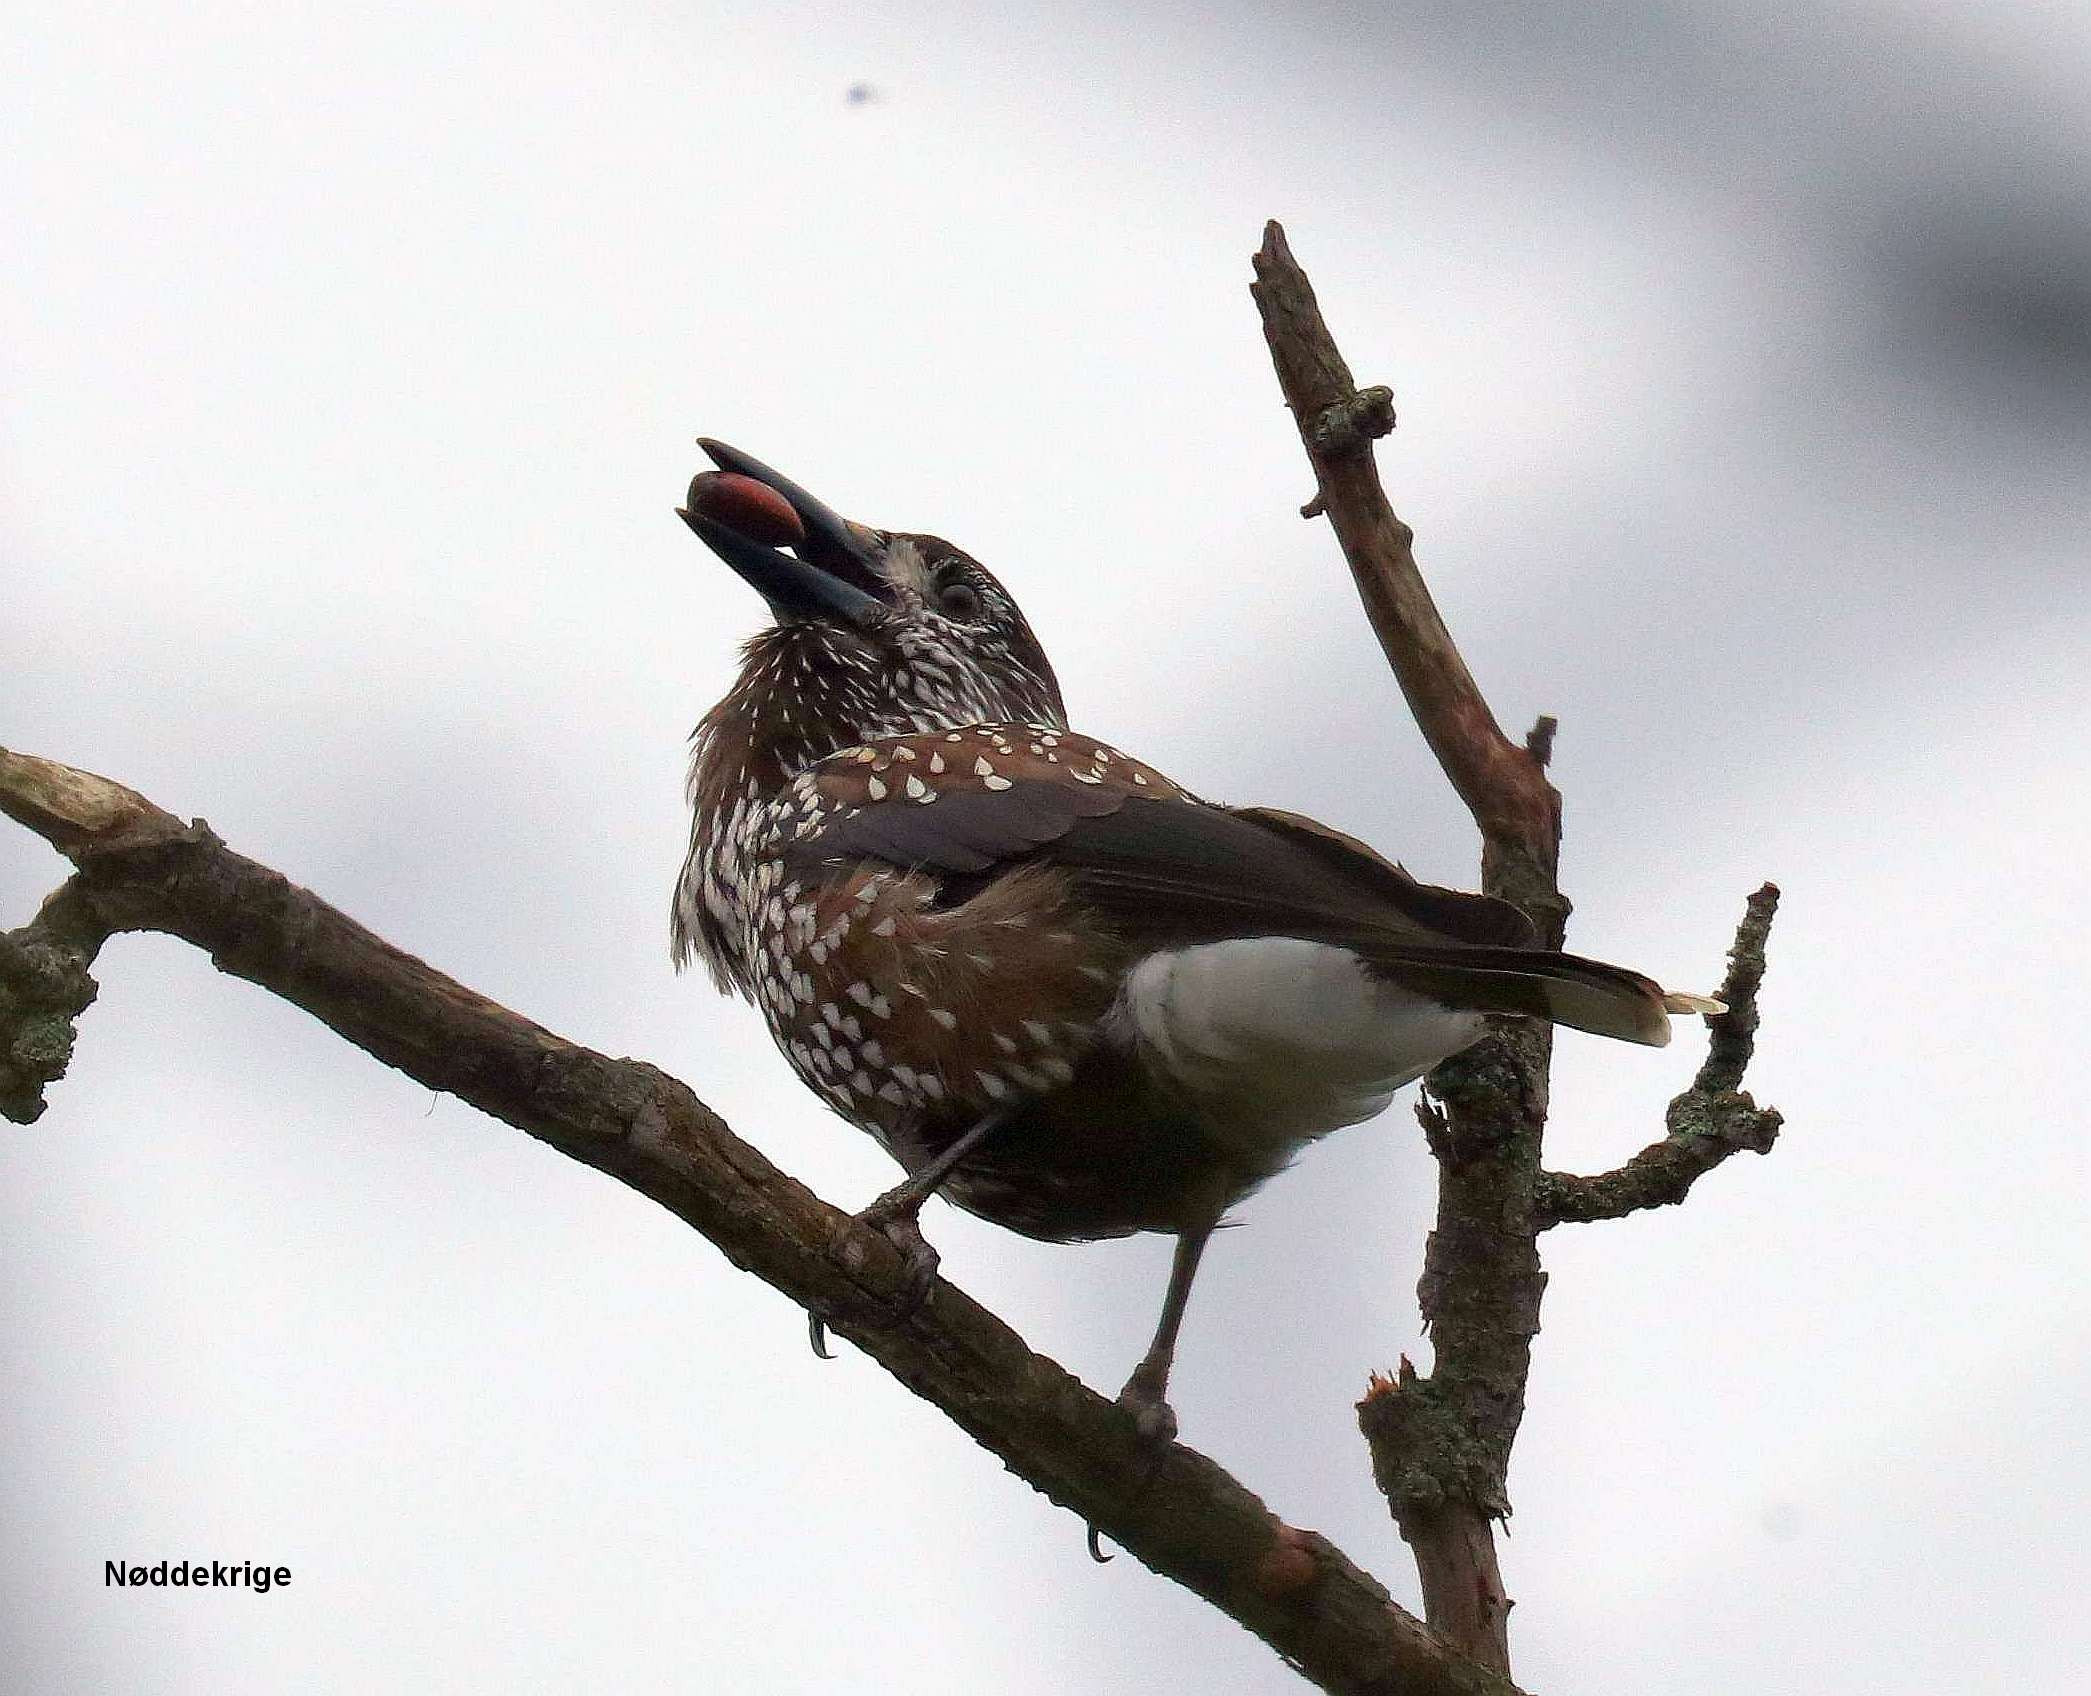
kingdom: Animalia
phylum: Chordata
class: Aves
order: Passeriformes
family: Corvidae
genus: Nucifraga
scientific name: Nucifraga caryocatactes
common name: Nøddekrige
